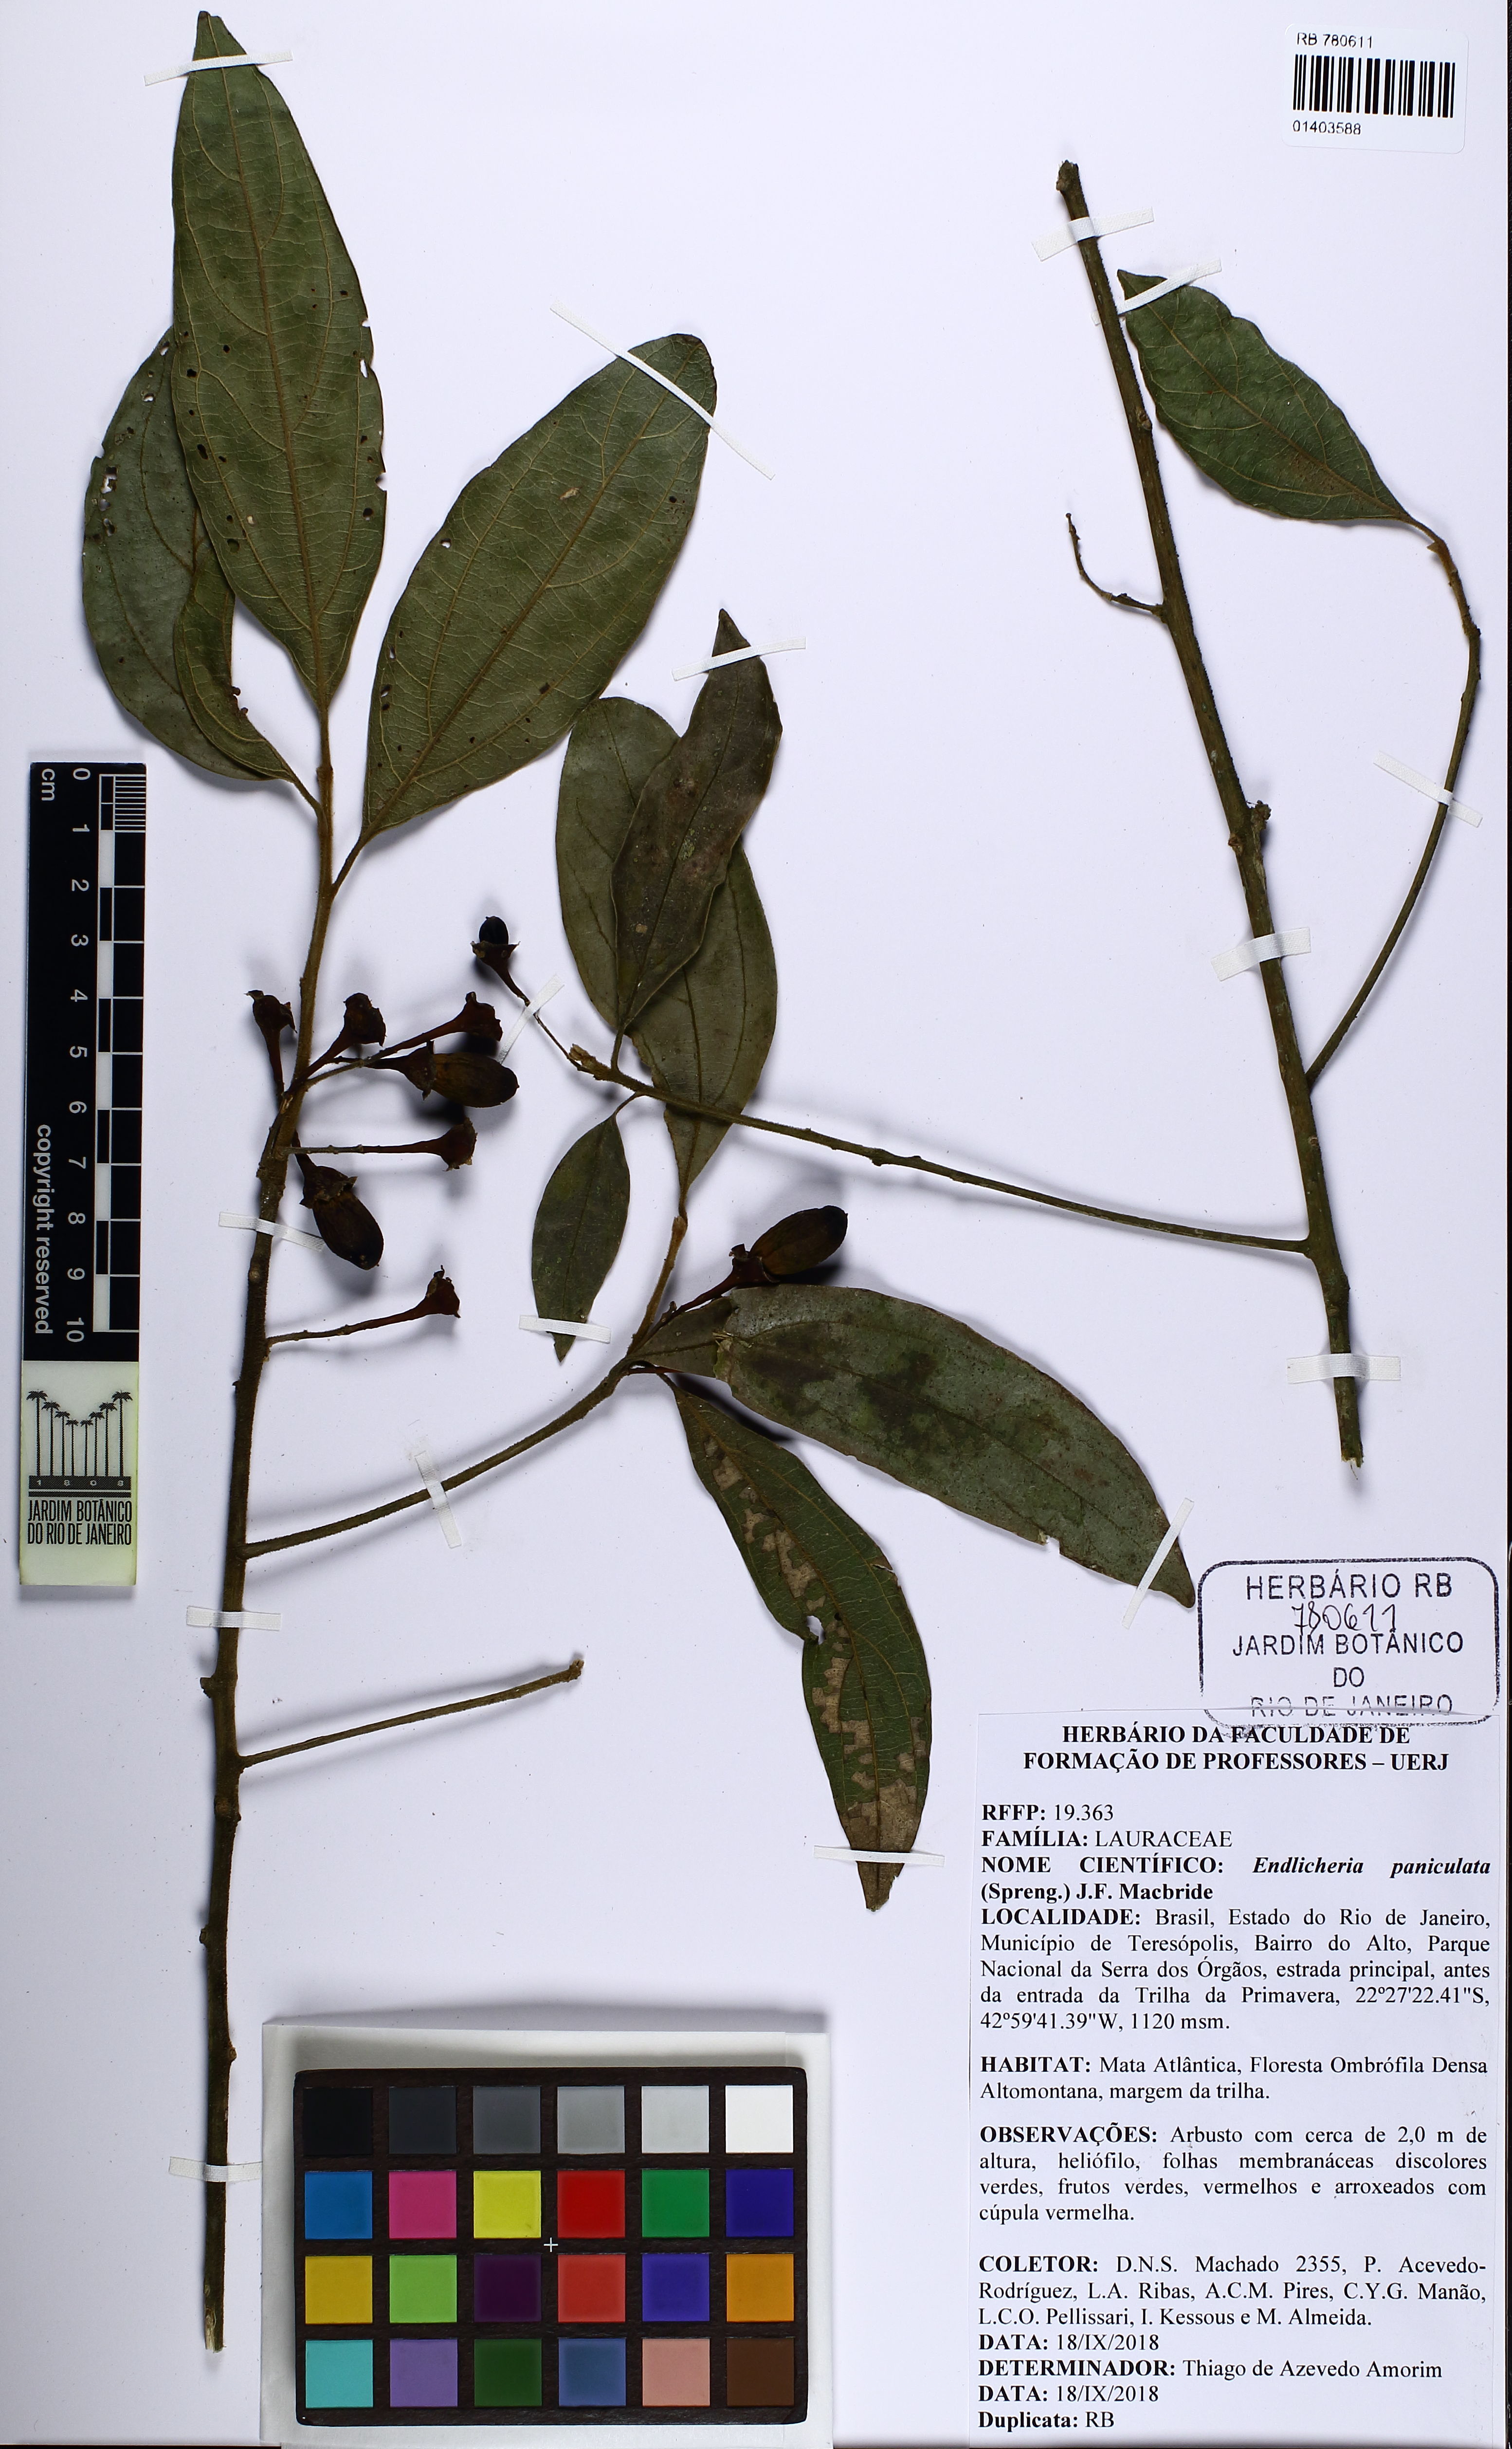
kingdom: Plantae
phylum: Tracheophyta
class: Magnoliopsida
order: Laurales
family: Lauraceae
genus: Endlicheria
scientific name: Endlicheria paniculata
